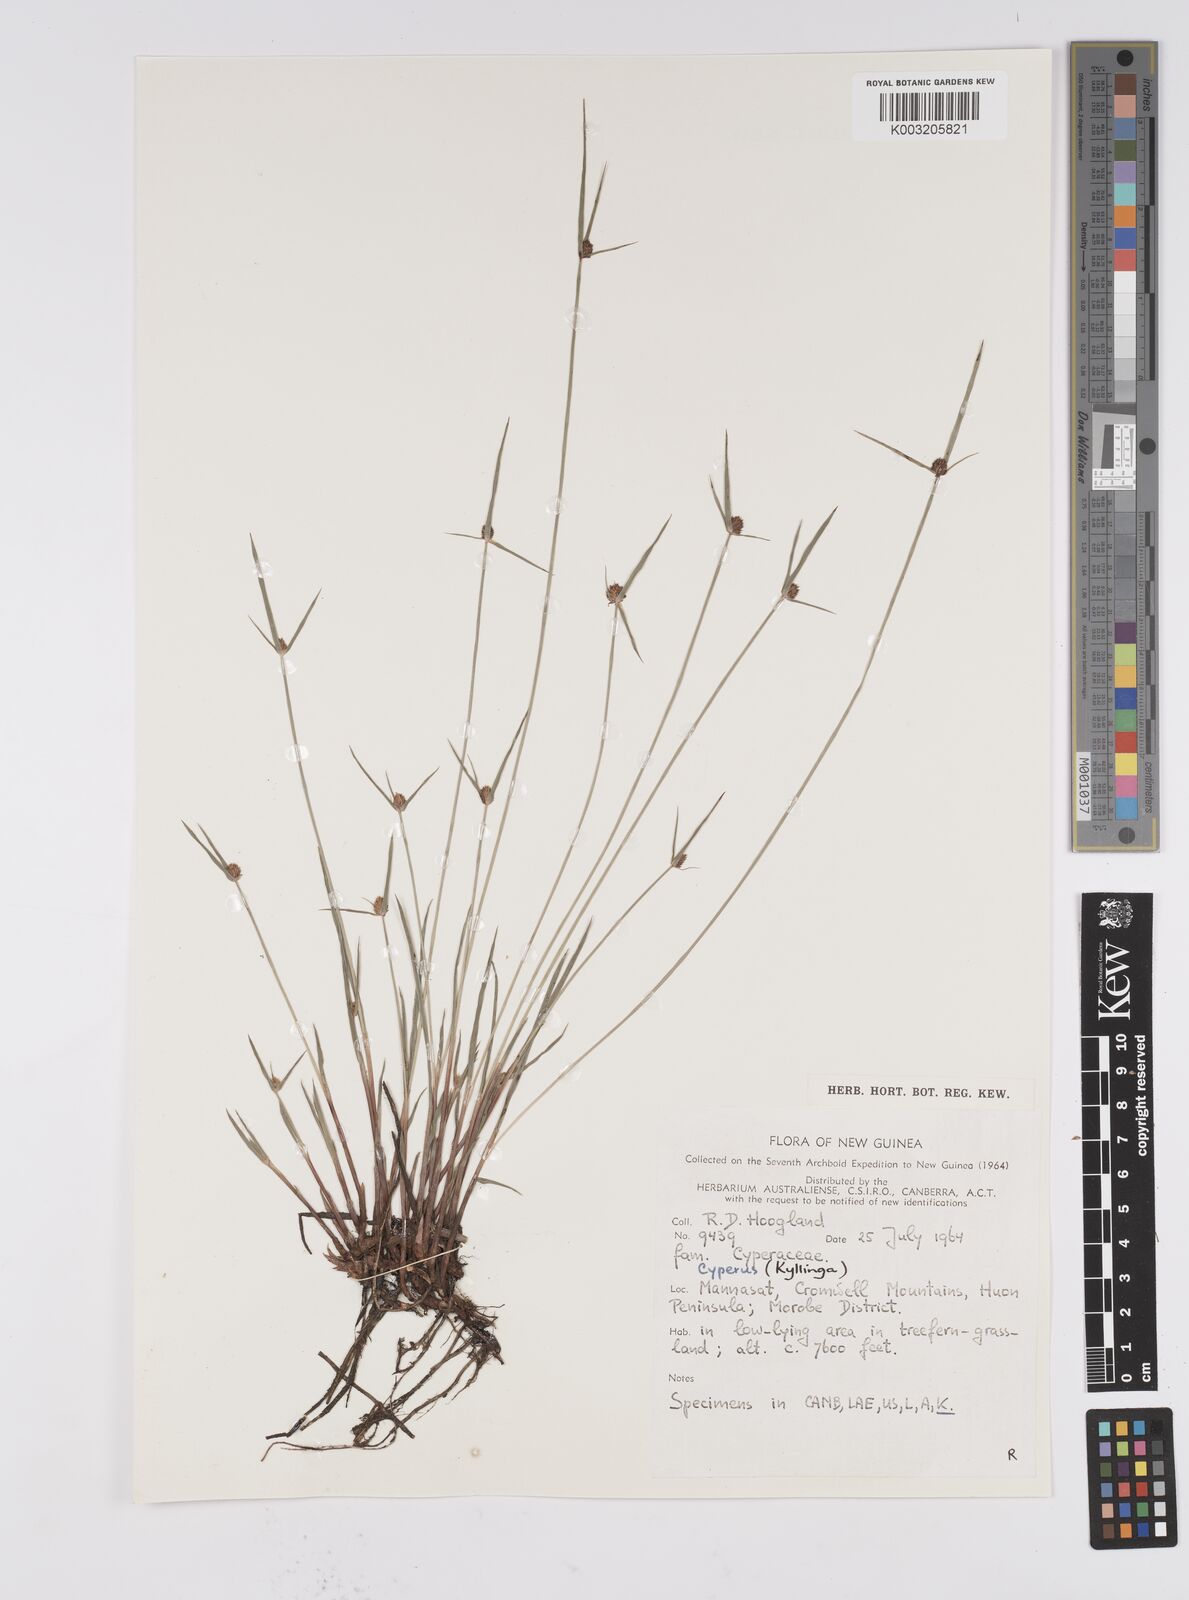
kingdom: Plantae
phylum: Tracheophyta
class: Liliopsida
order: Poales
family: Cyperaceae
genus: Cyperus
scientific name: Cyperus brevifolius
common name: Globe kyllinga
